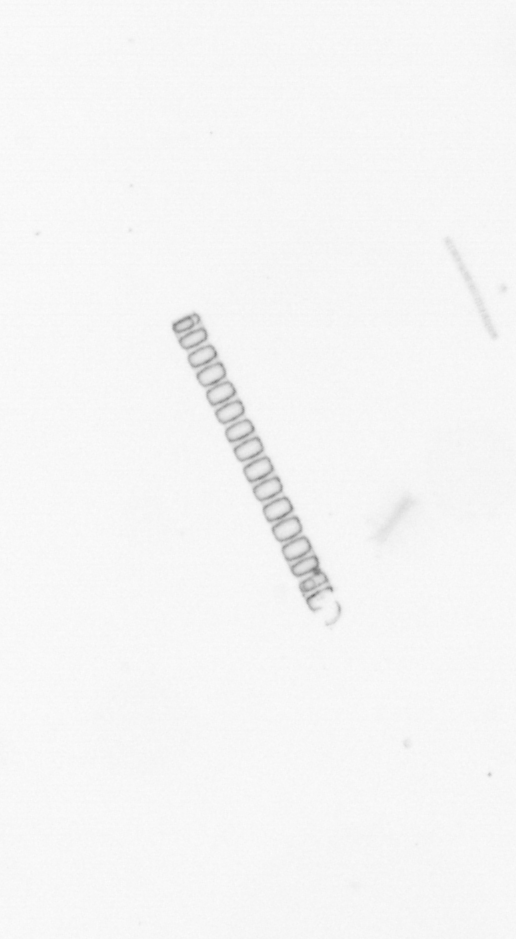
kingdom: Chromista
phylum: Ochrophyta
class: Bacillariophyceae
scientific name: Bacillariophyceae
